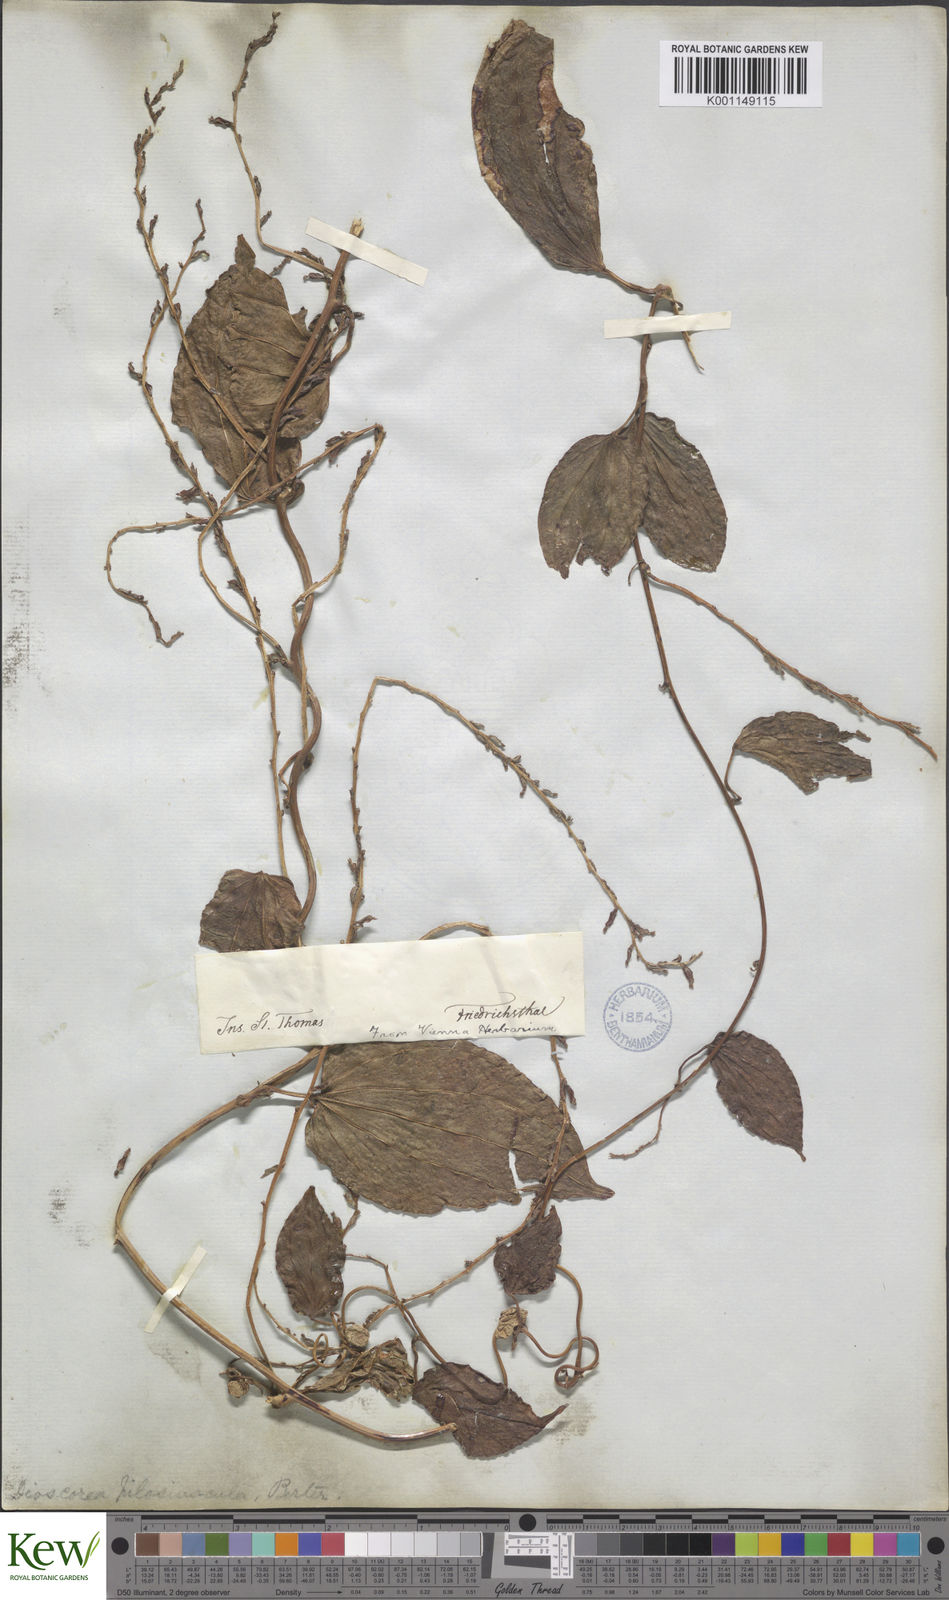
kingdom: Plantae
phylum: Tracheophyta
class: Liliopsida
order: Dioscoreales
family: Dioscoreaceae
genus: Dioscorea
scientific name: Dioscorea pilosiuscula
